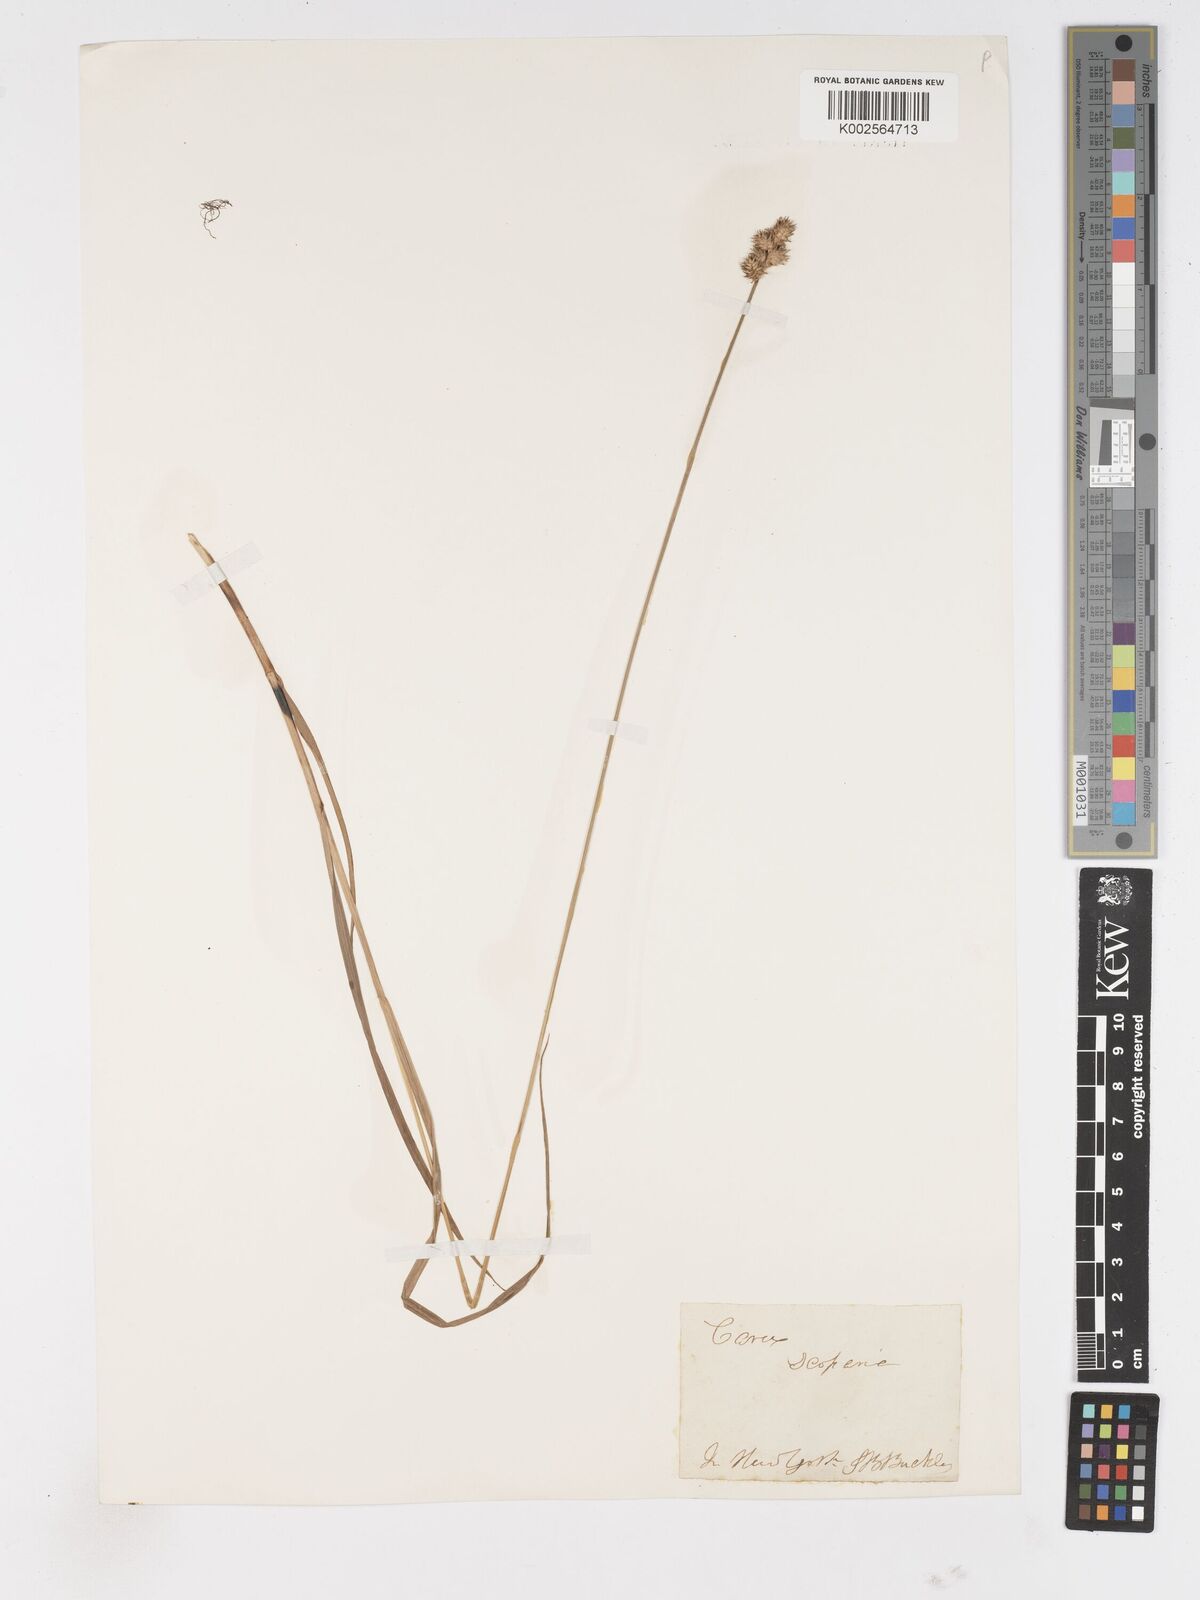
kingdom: Plantae
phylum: Tracheophyta
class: Liliopsida
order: Poales
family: Cyperaceae
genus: Carex
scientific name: Carex
